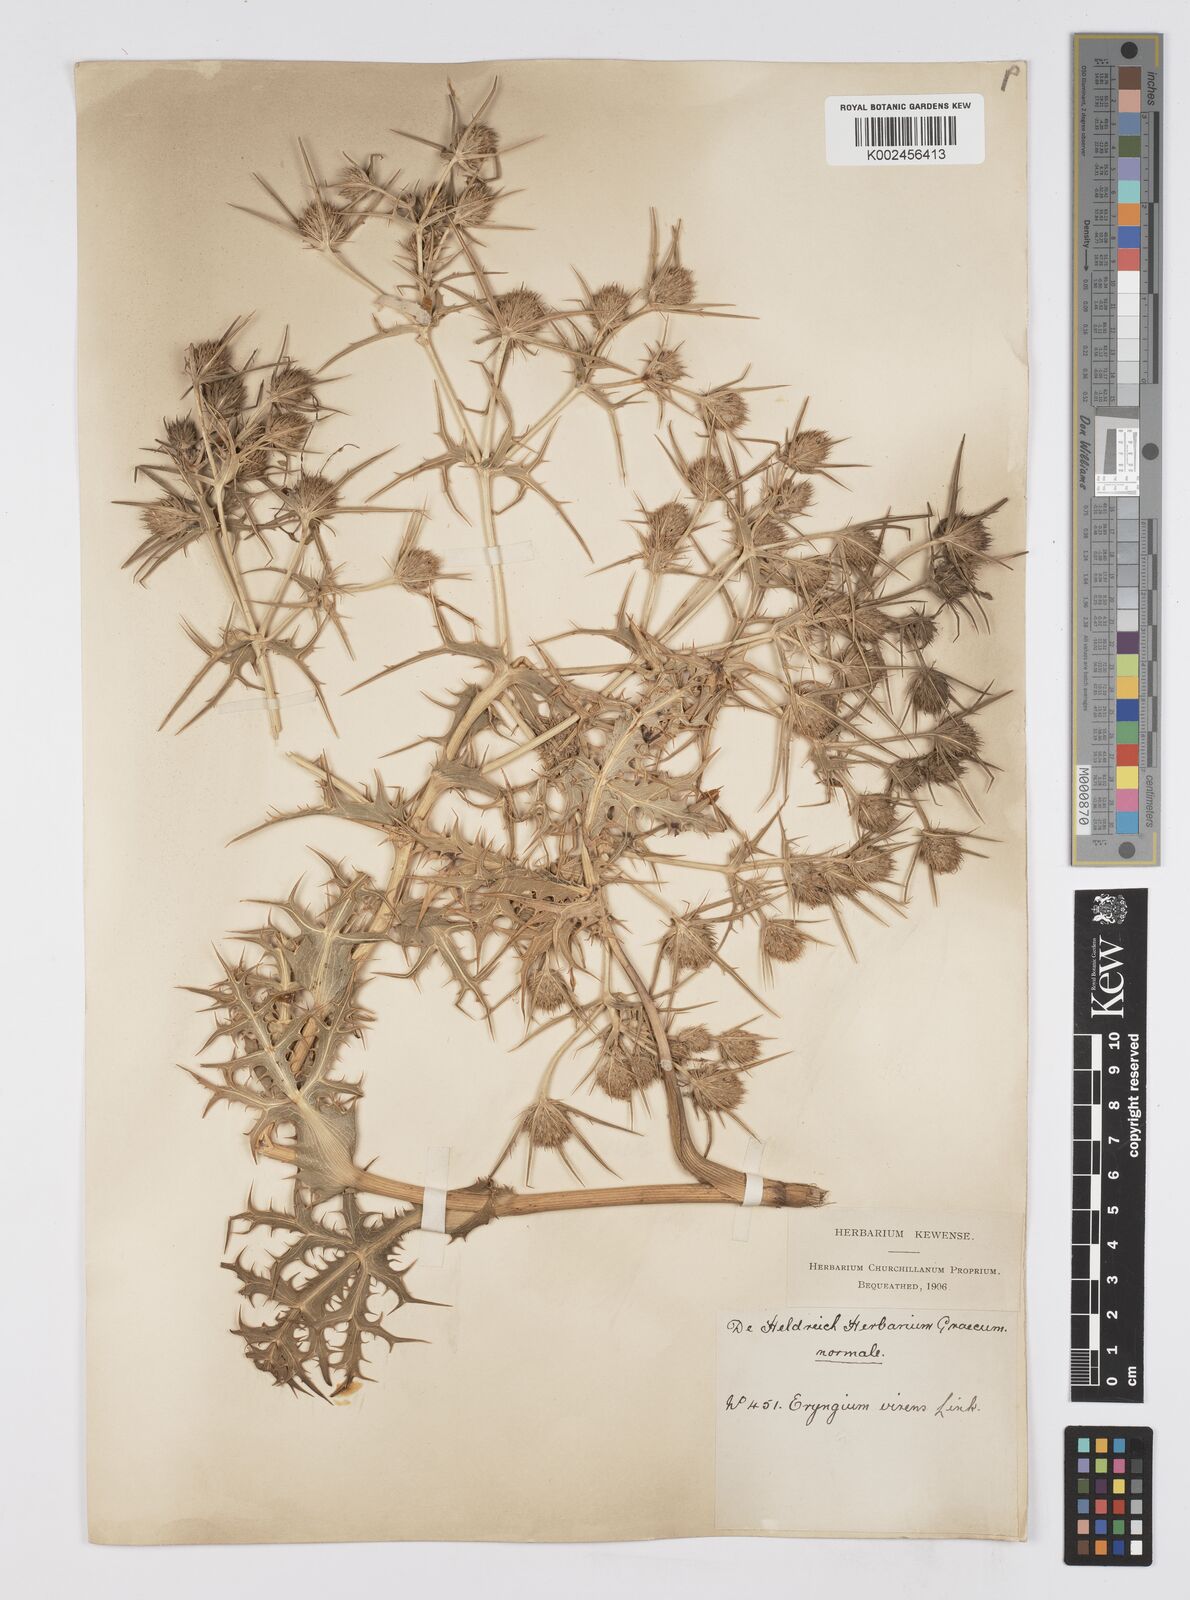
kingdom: Plantae
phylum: Tracheophyta
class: Magnoliopsida
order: Apiales
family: Apiaceae
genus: Eryngium
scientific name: Eryngium campestre
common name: Field eryngo
